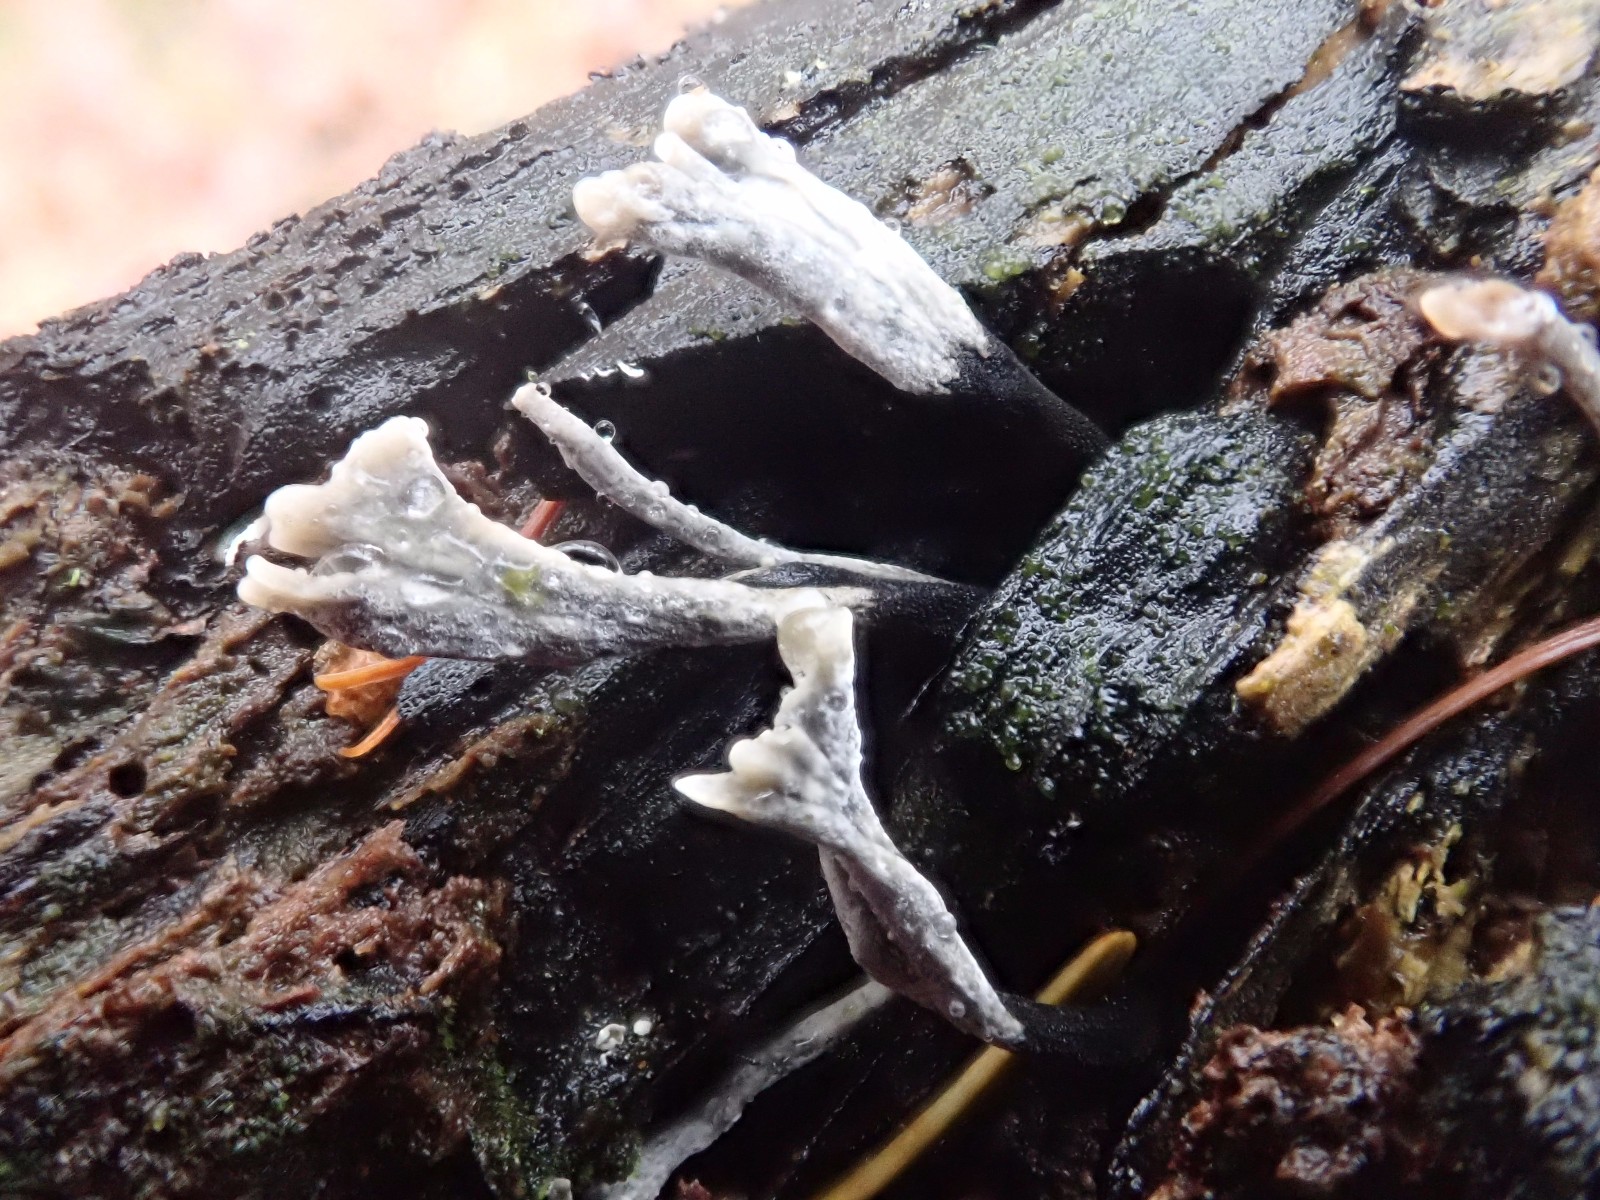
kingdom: Fungi
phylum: Ascomycota
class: Sordariomycetes
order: Xylariales
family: Xylariaceae
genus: Xylaria
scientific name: Xylaria hypoxylon
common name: grenet stødsvamp
